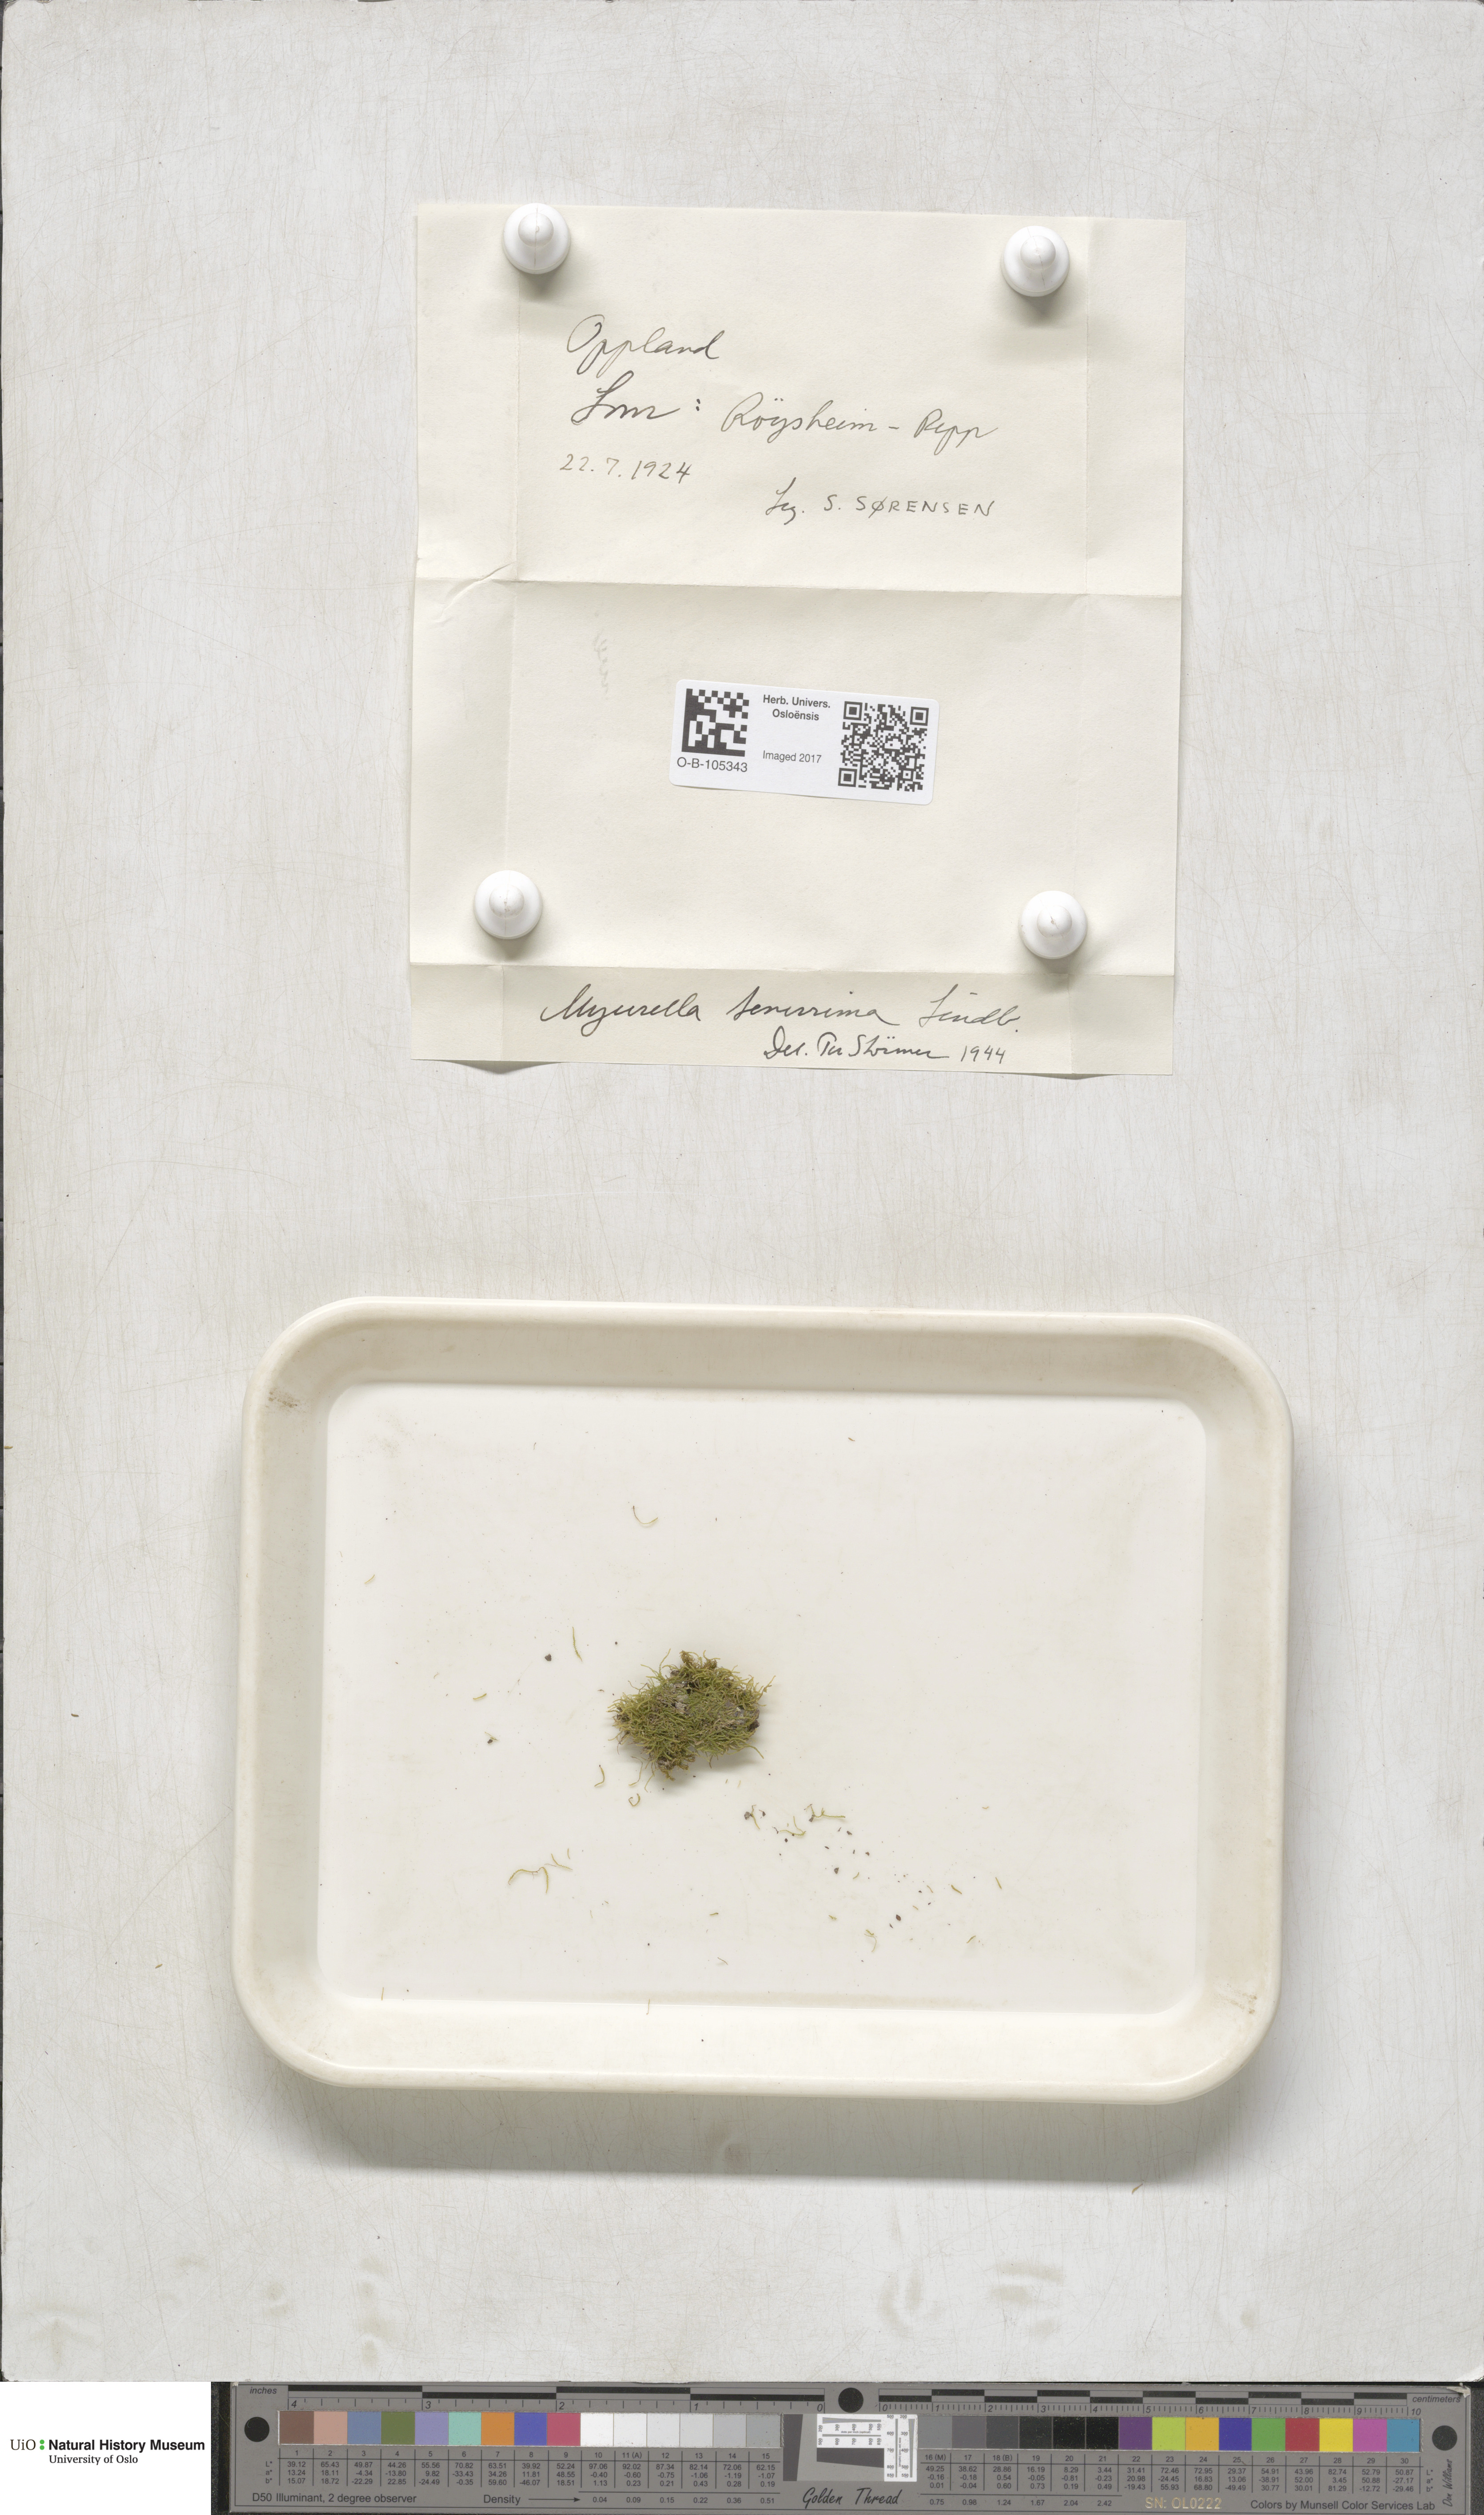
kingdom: Plantae
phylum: Bryophyta
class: Bryopsida
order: Hypnales
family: Plagiotheciaceae
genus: Myurella
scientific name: Myurella tenerrima
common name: Dwarf mousetail moss
